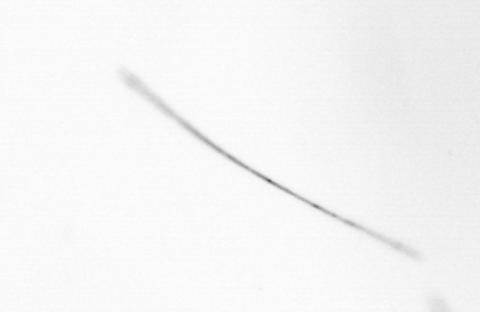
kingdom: Chromista
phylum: Ochrophyta
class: Bacillariophyceae
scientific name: Bacillariophyceae
